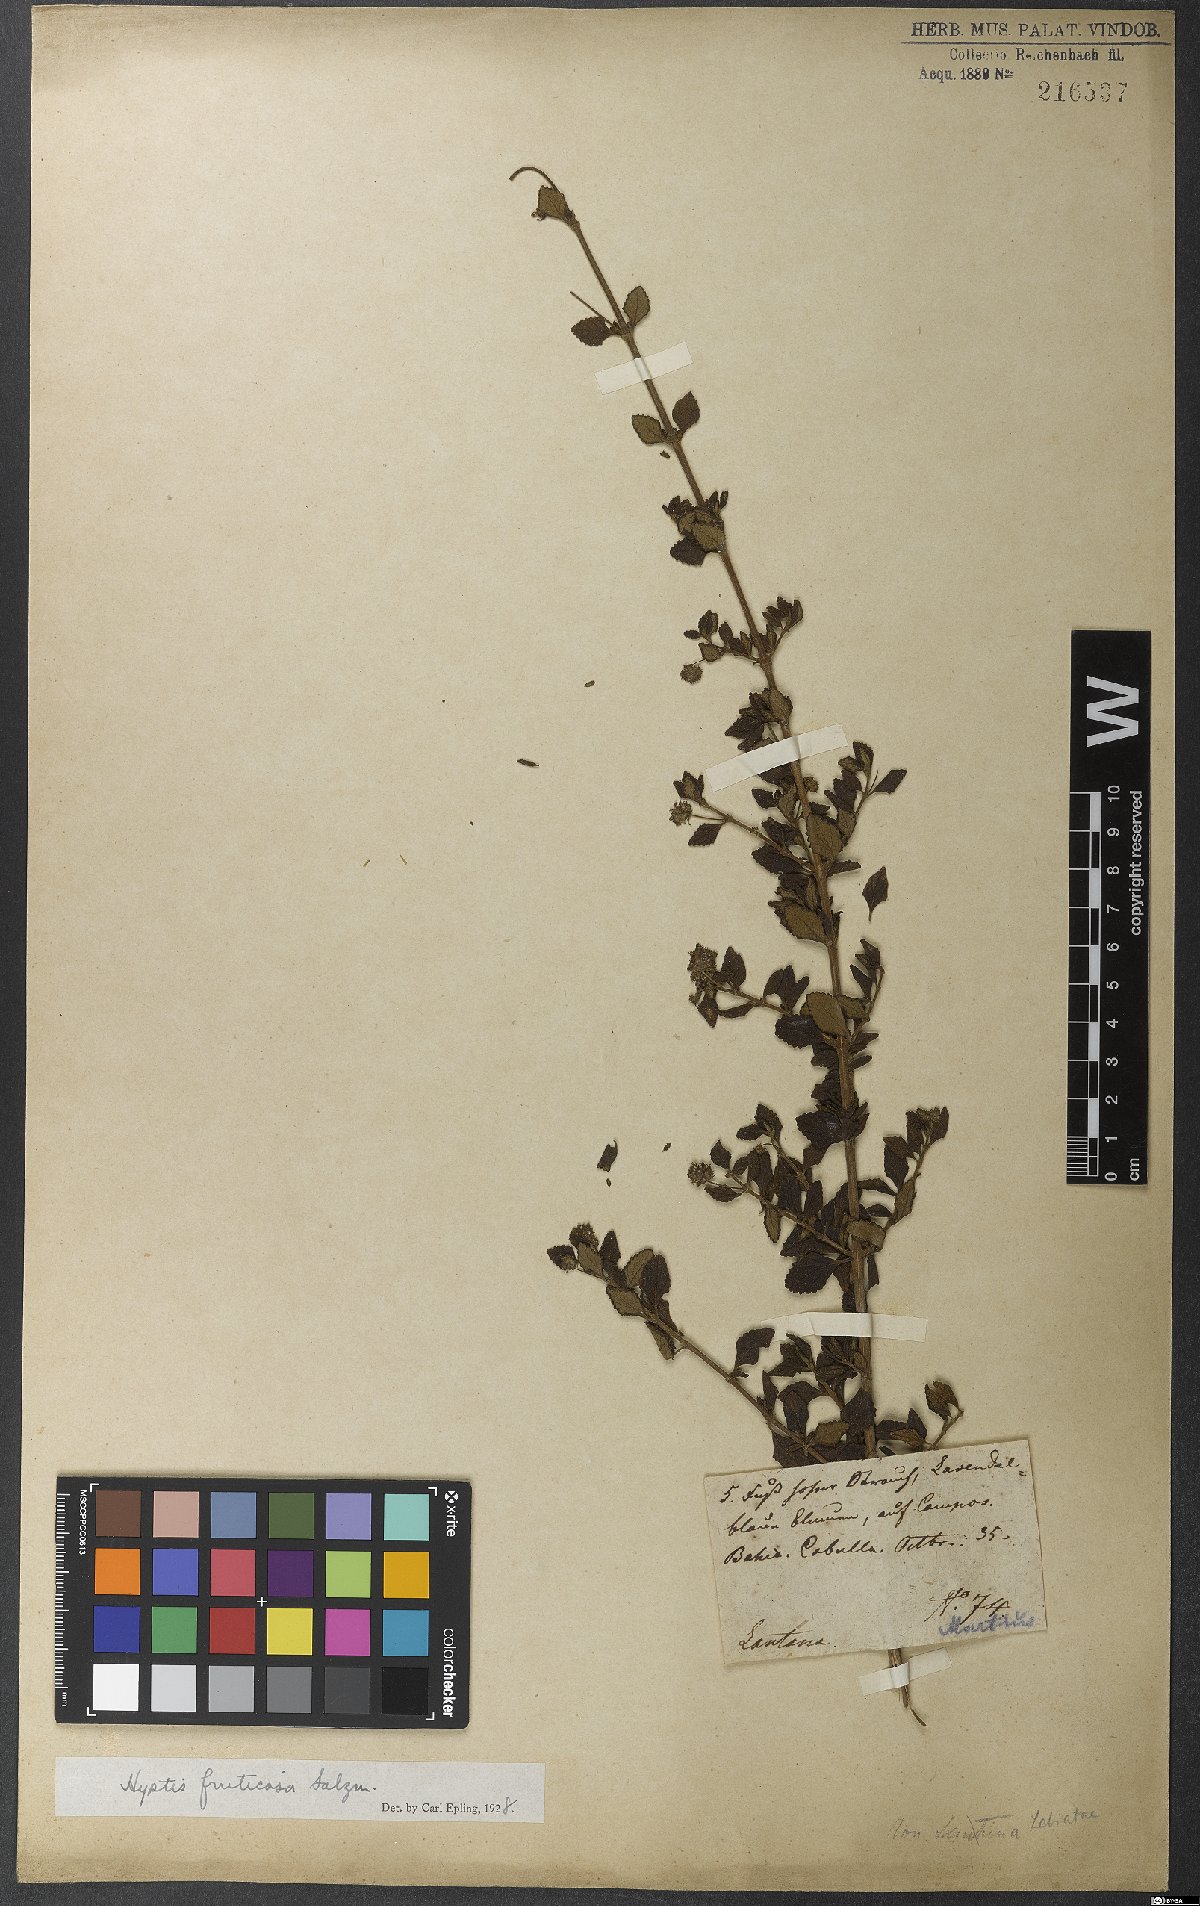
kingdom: Plantae
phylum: Tracheophyta
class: Magnoliopsida
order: Lamiales
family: Lamiaceae
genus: Eplingiella
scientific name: Eplingiella fruticosa
